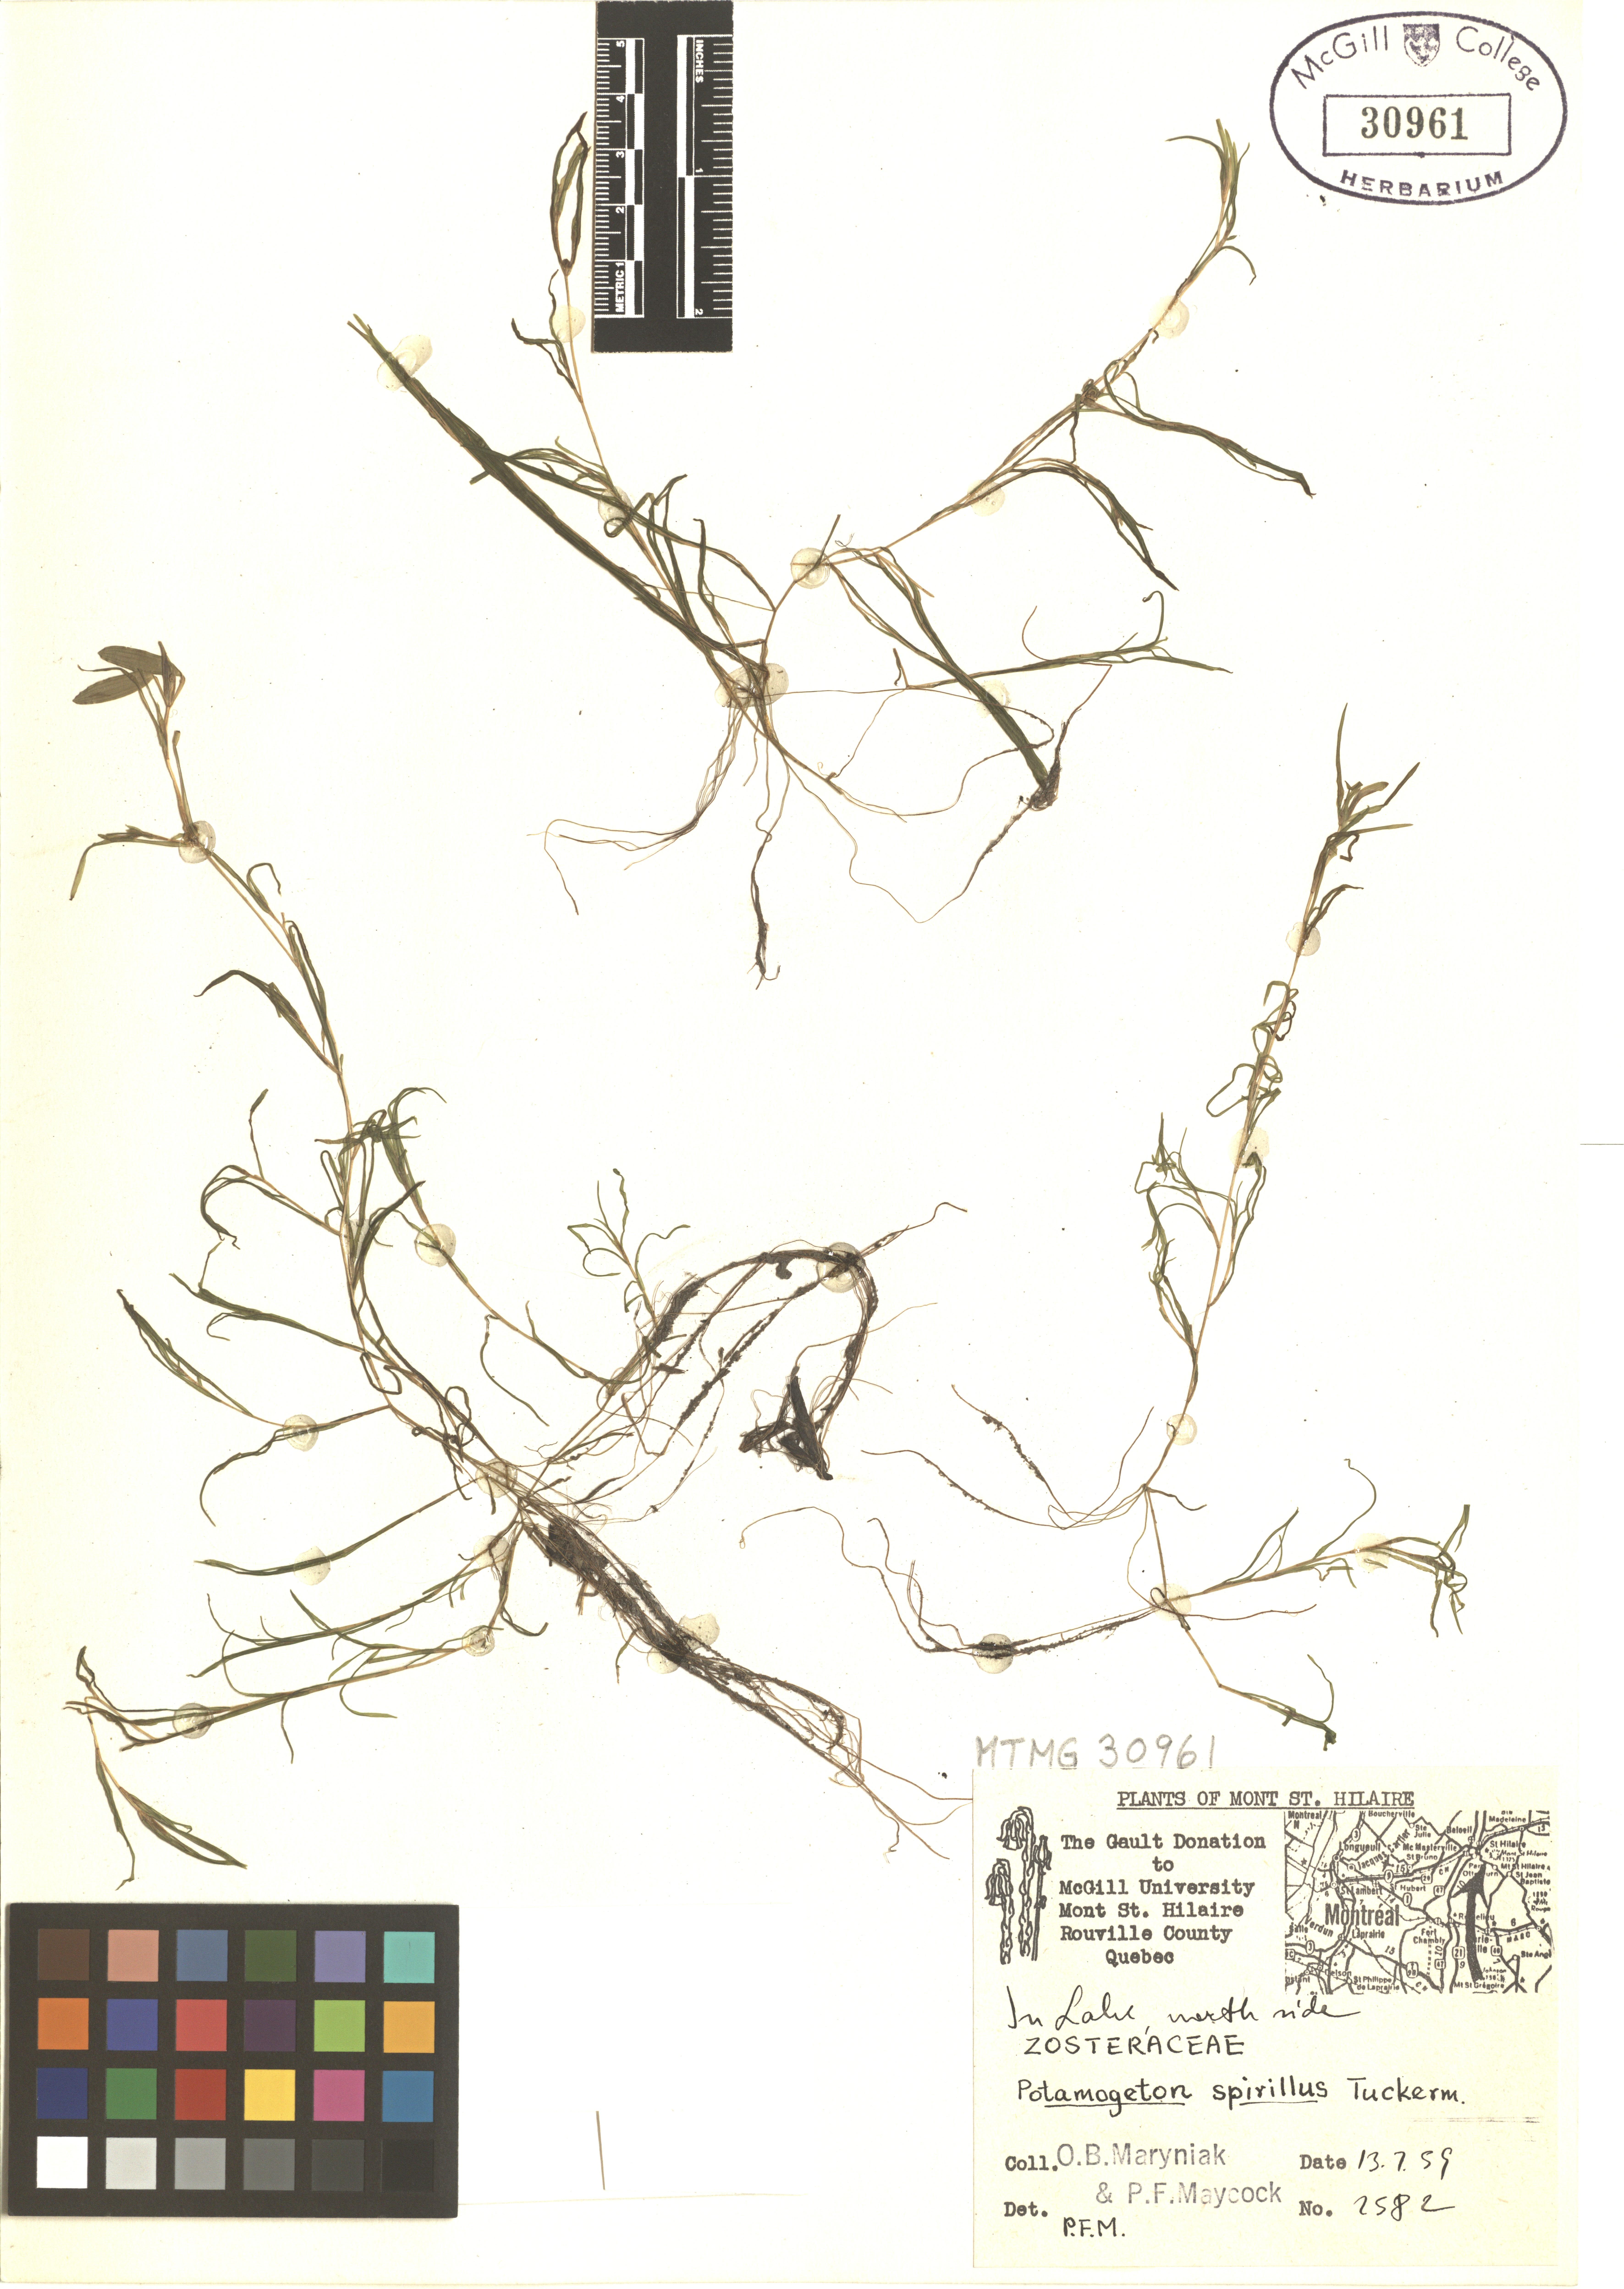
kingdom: Plantae
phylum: Tracheophyta
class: Liliopsida
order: Alismatales
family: Potamogetonaceae
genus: Potamogeton
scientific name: Potamogeton spirillus
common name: Northern snail-seed pondweed
